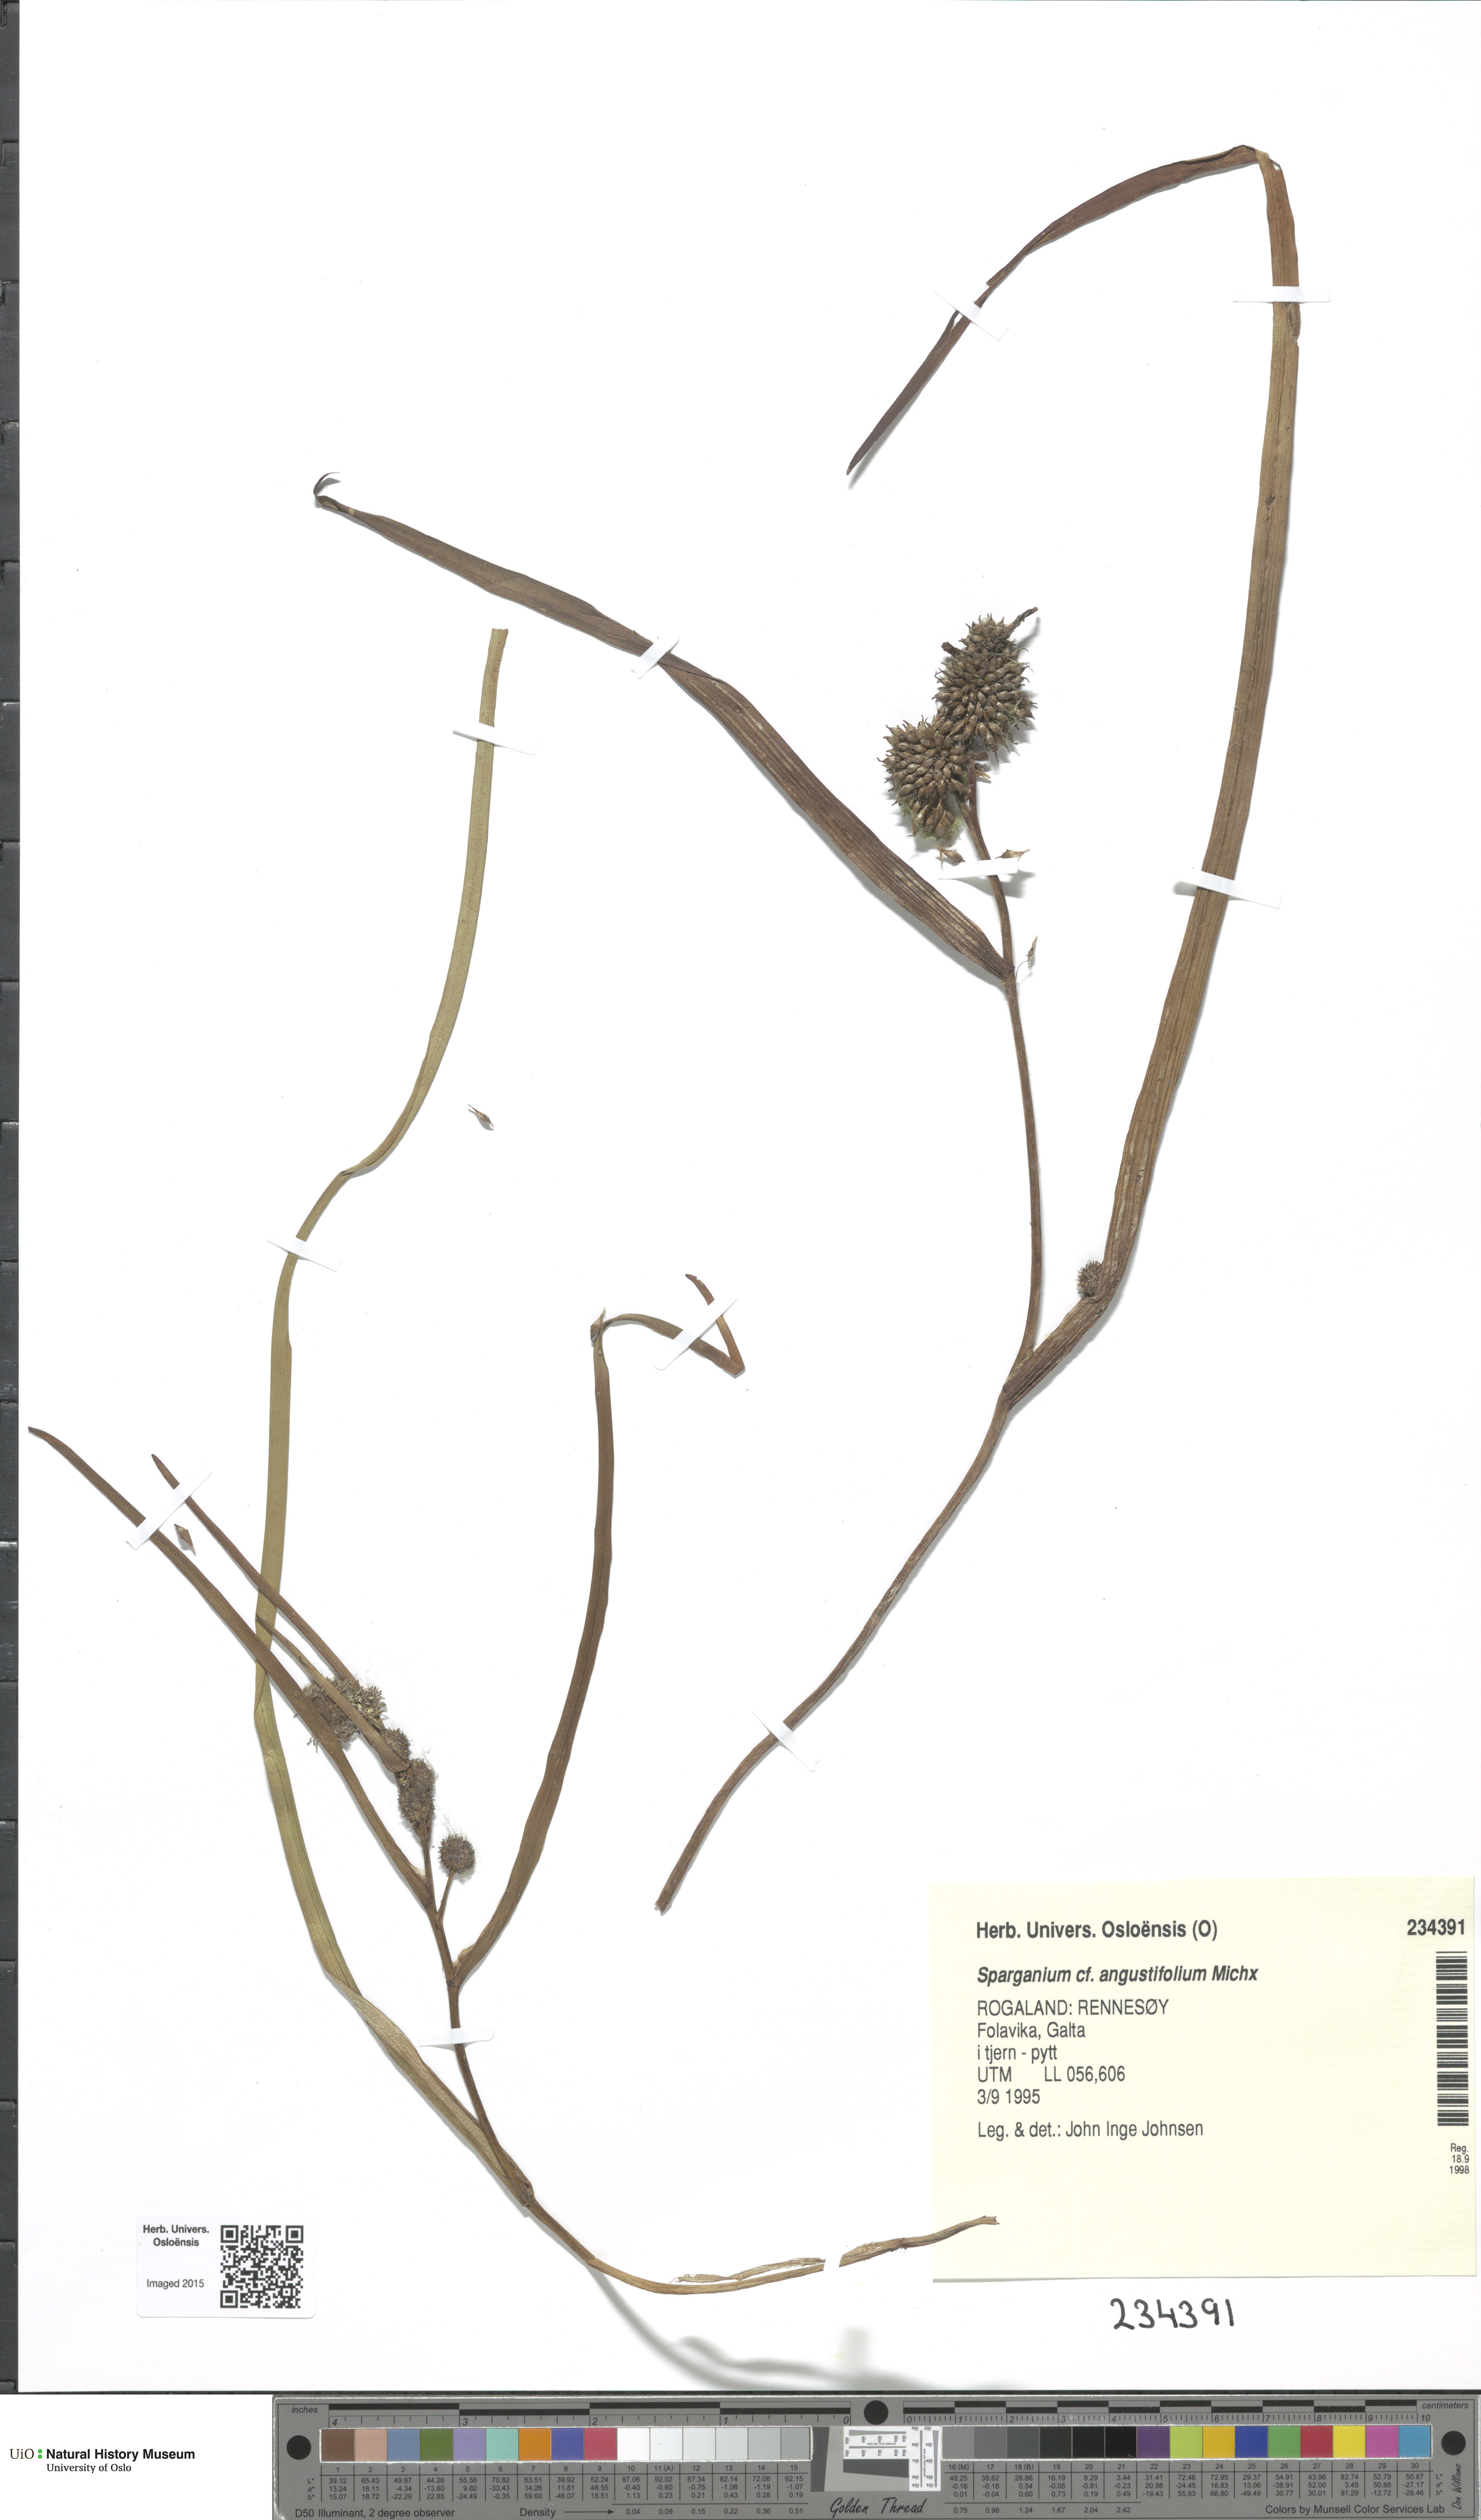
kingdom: Plantae
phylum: Tracheophyta
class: Liliopsida
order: Poales
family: Typhaceae
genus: Sparganium
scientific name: Sparganium angustifolium
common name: Floating bur-reed
